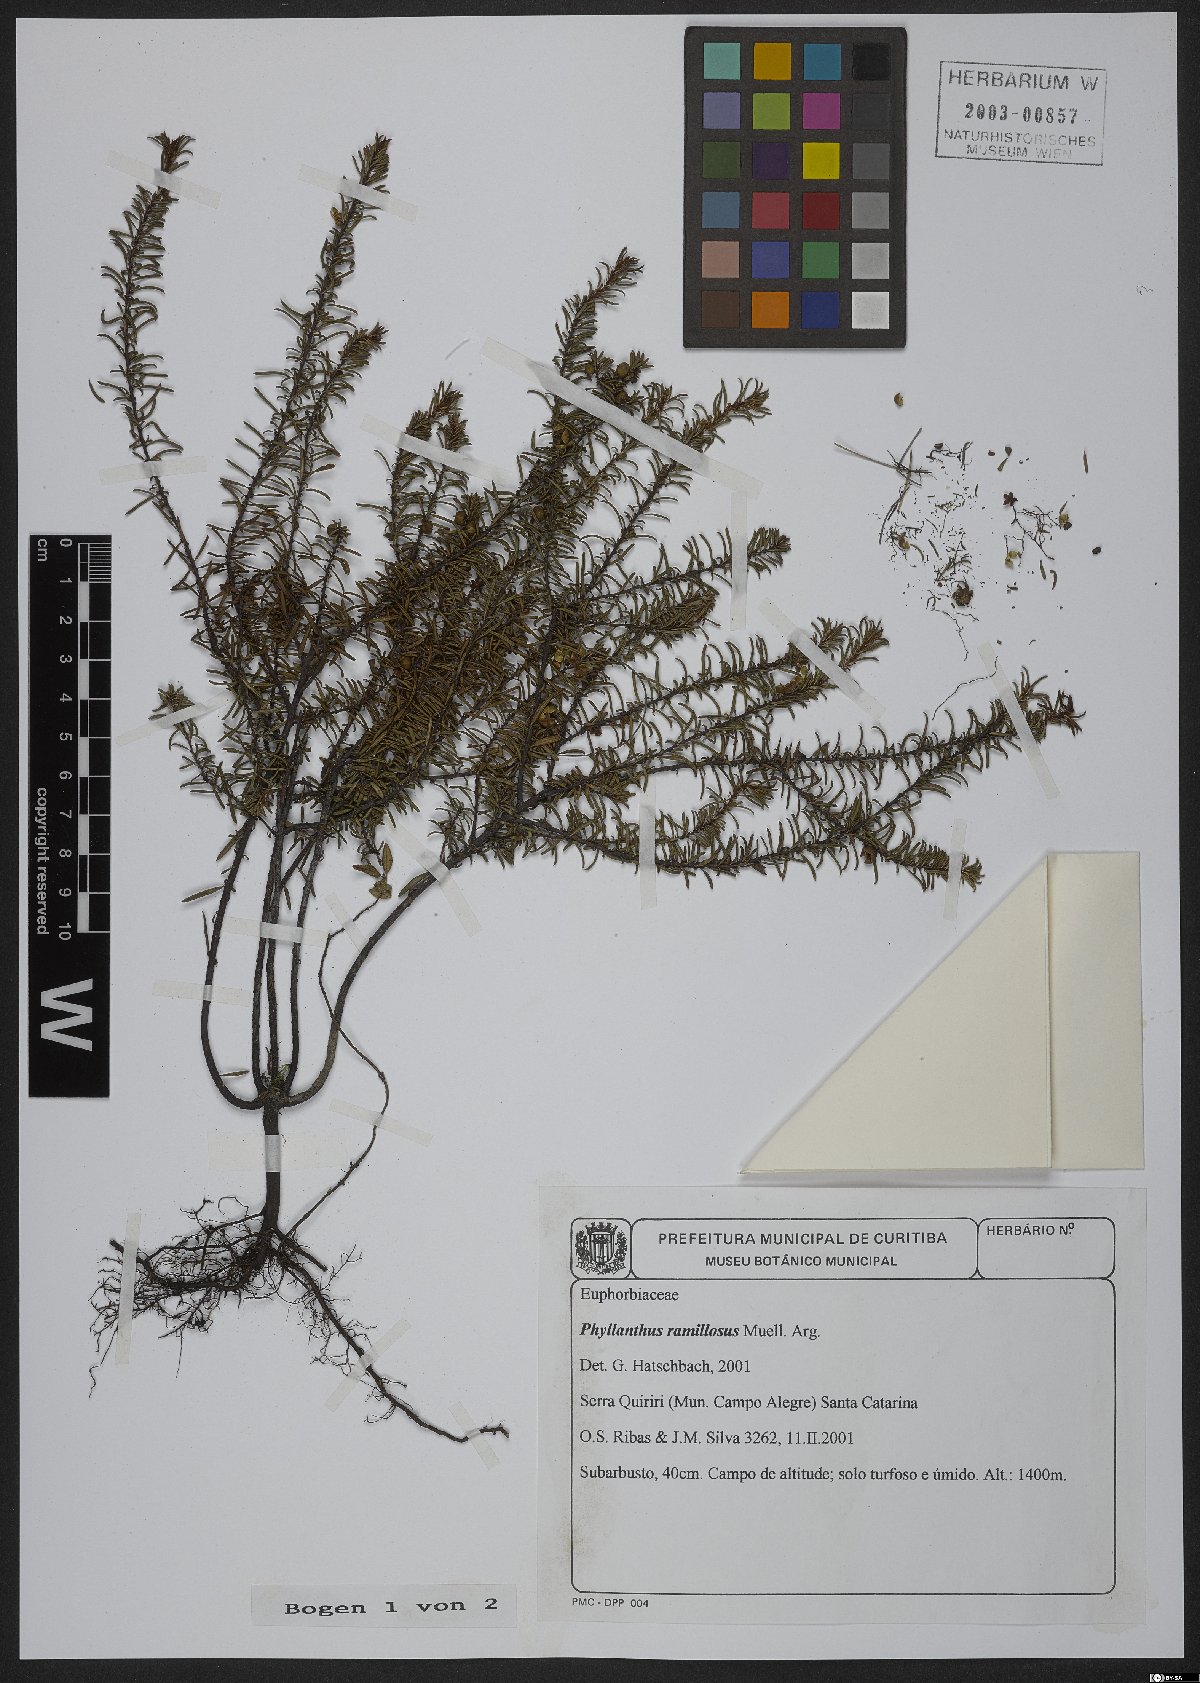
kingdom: Plantae
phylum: Tracheophyta
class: Magnoliopsida
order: Malpighiales
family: Phyllanthaceae
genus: Phyllanthus
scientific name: Phyllanthus ramillosus
